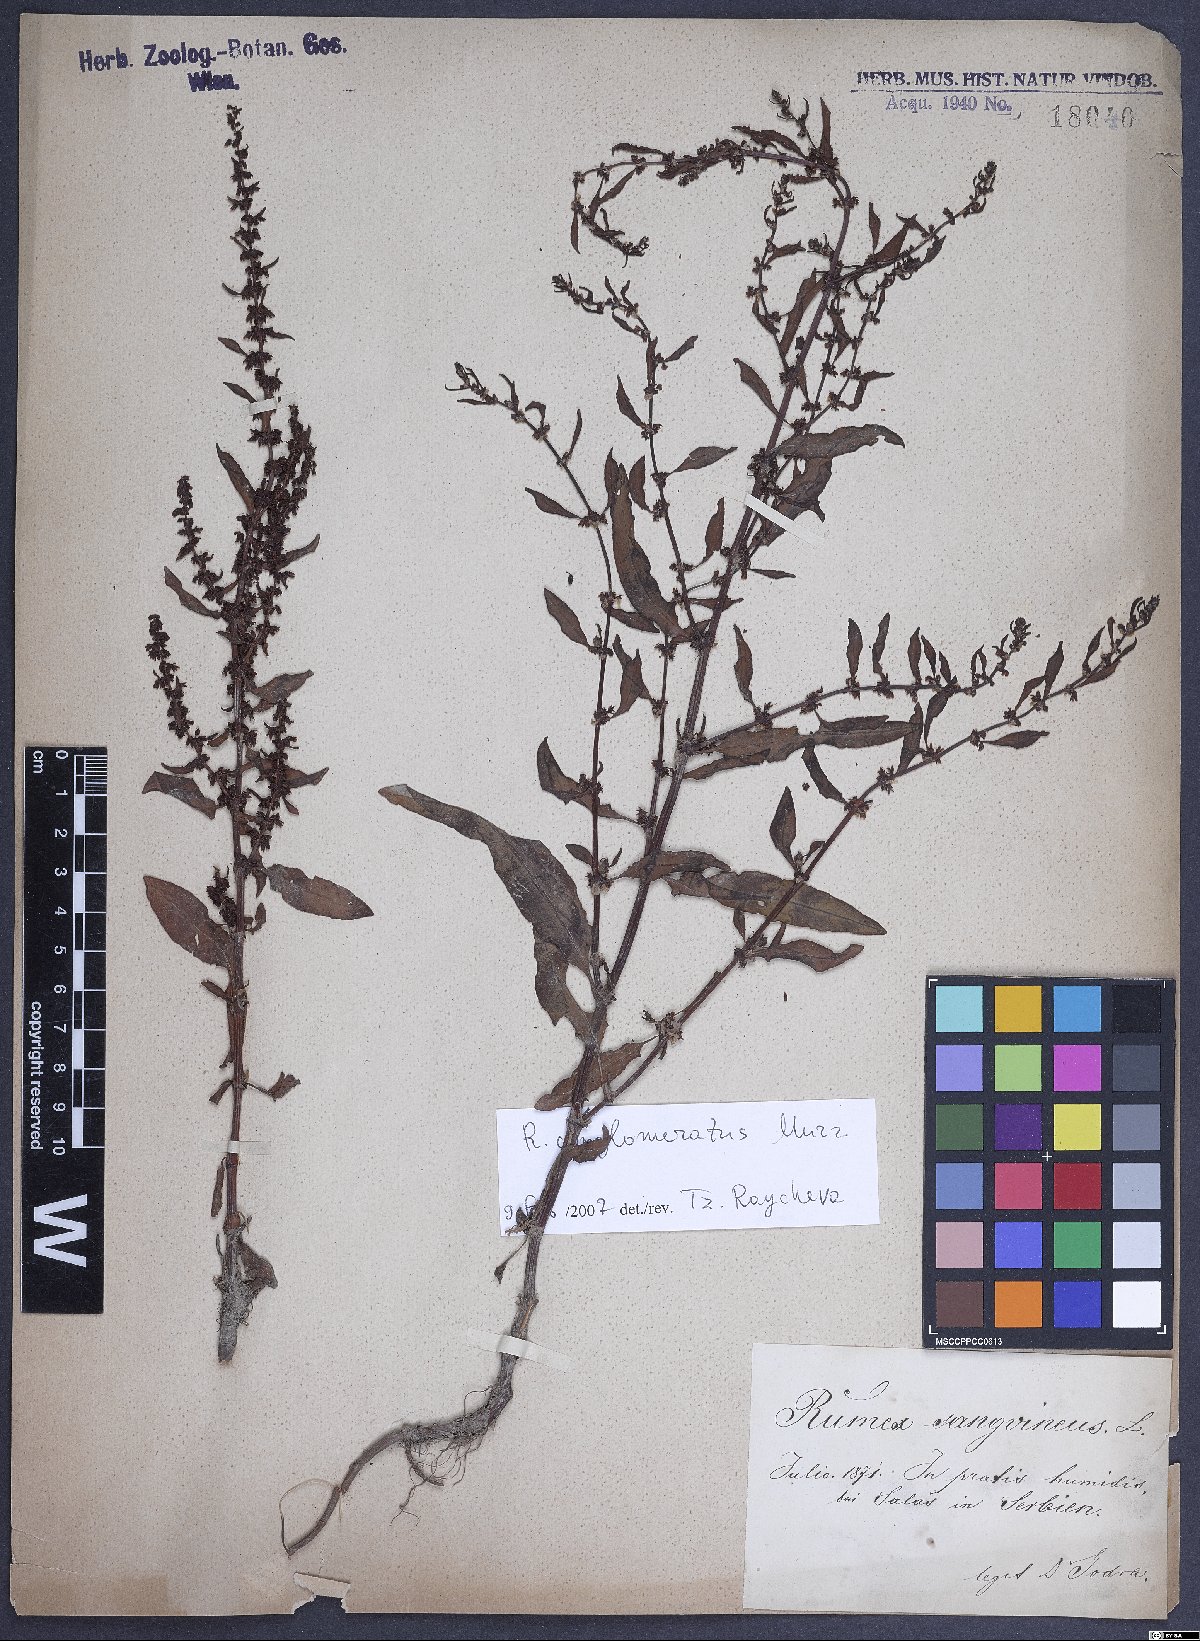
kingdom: Plantae
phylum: Tracheophyta
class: Magnoliopsida
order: Caryophyllales
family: Polygonaceae
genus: Rumex
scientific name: Rumex conglomeratus
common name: Clustered dock
